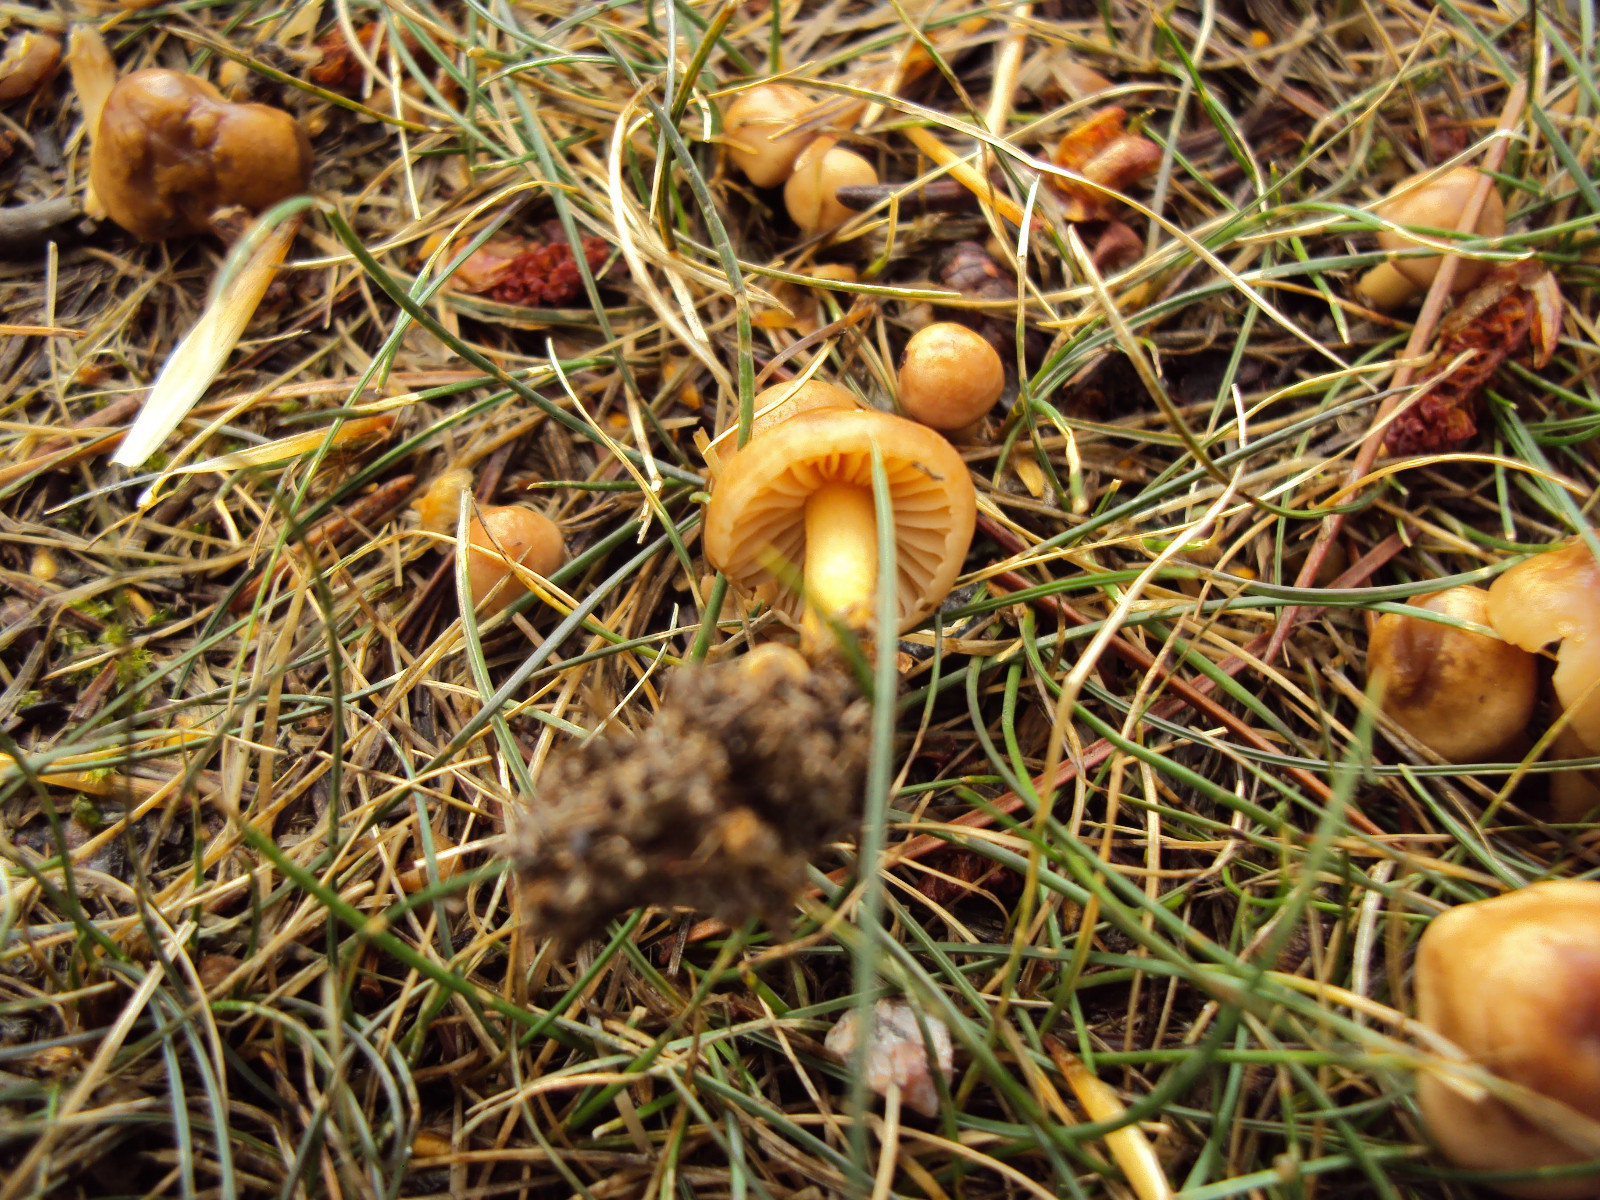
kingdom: Fungi
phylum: Basidiomycota
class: Agaricomycetes
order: Agaricales
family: Marasmiaceae
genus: Marasmius
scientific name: Marasmius oreades
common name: elledans-bruskhat
